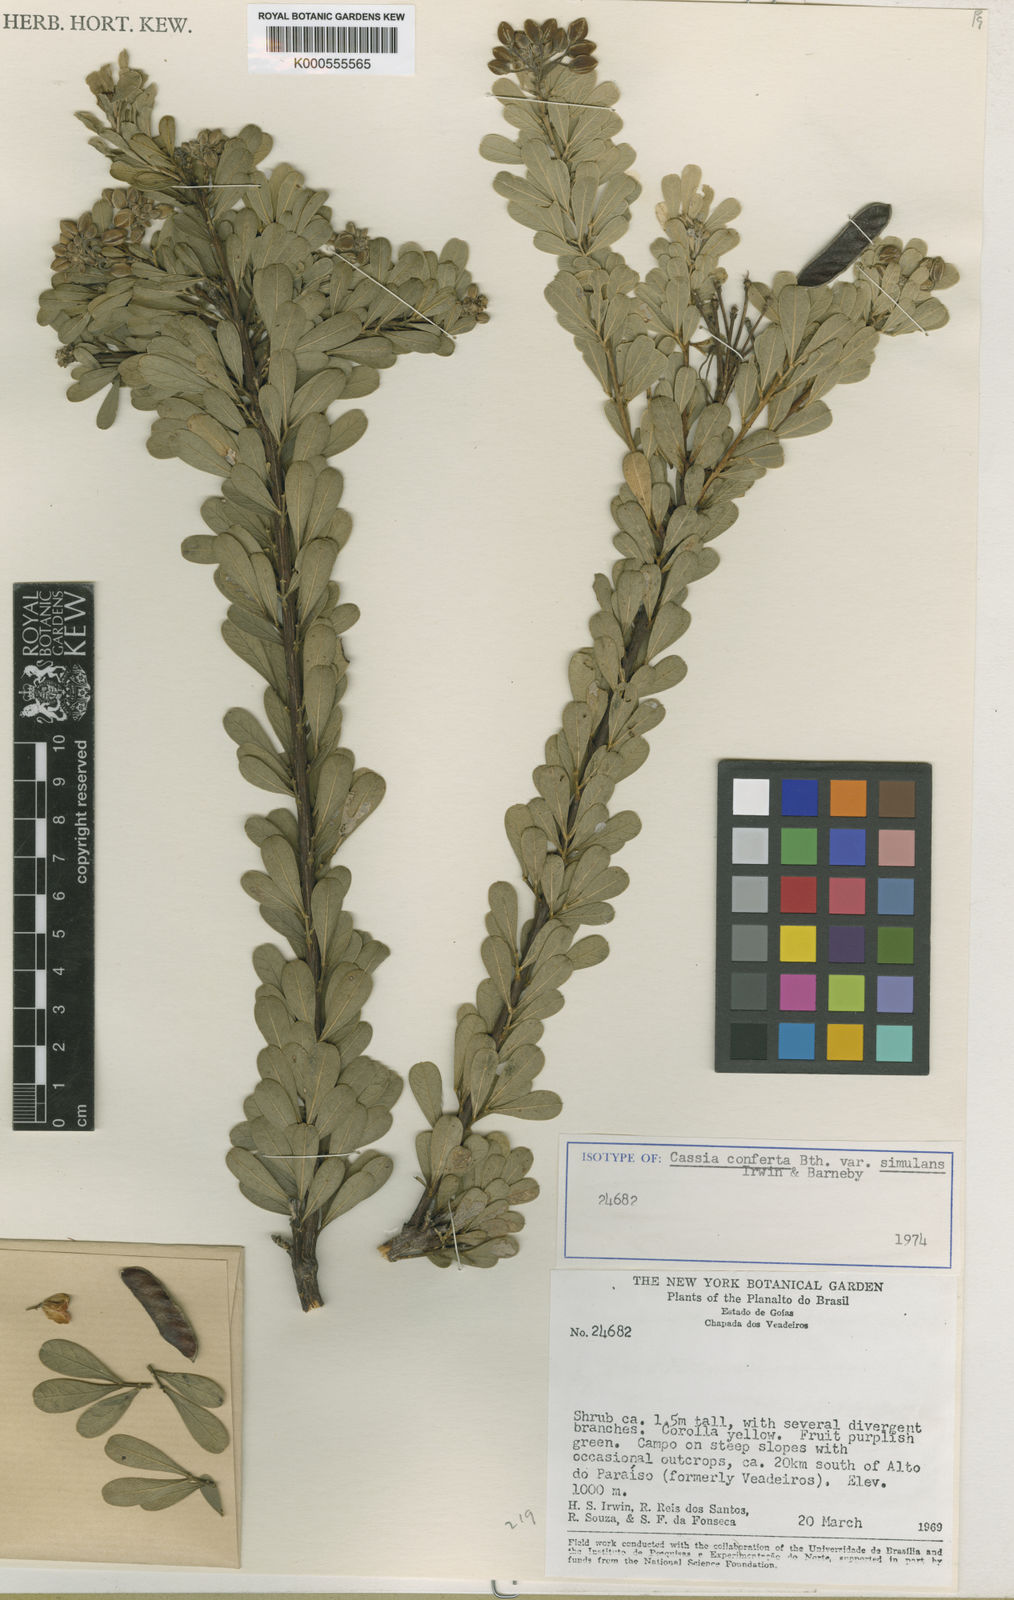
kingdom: Plantae
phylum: Tracheophyta
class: Magnoliopsida
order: Fabales
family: Fabaceae
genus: Chamaecrista
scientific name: Chamaecrista conferta
